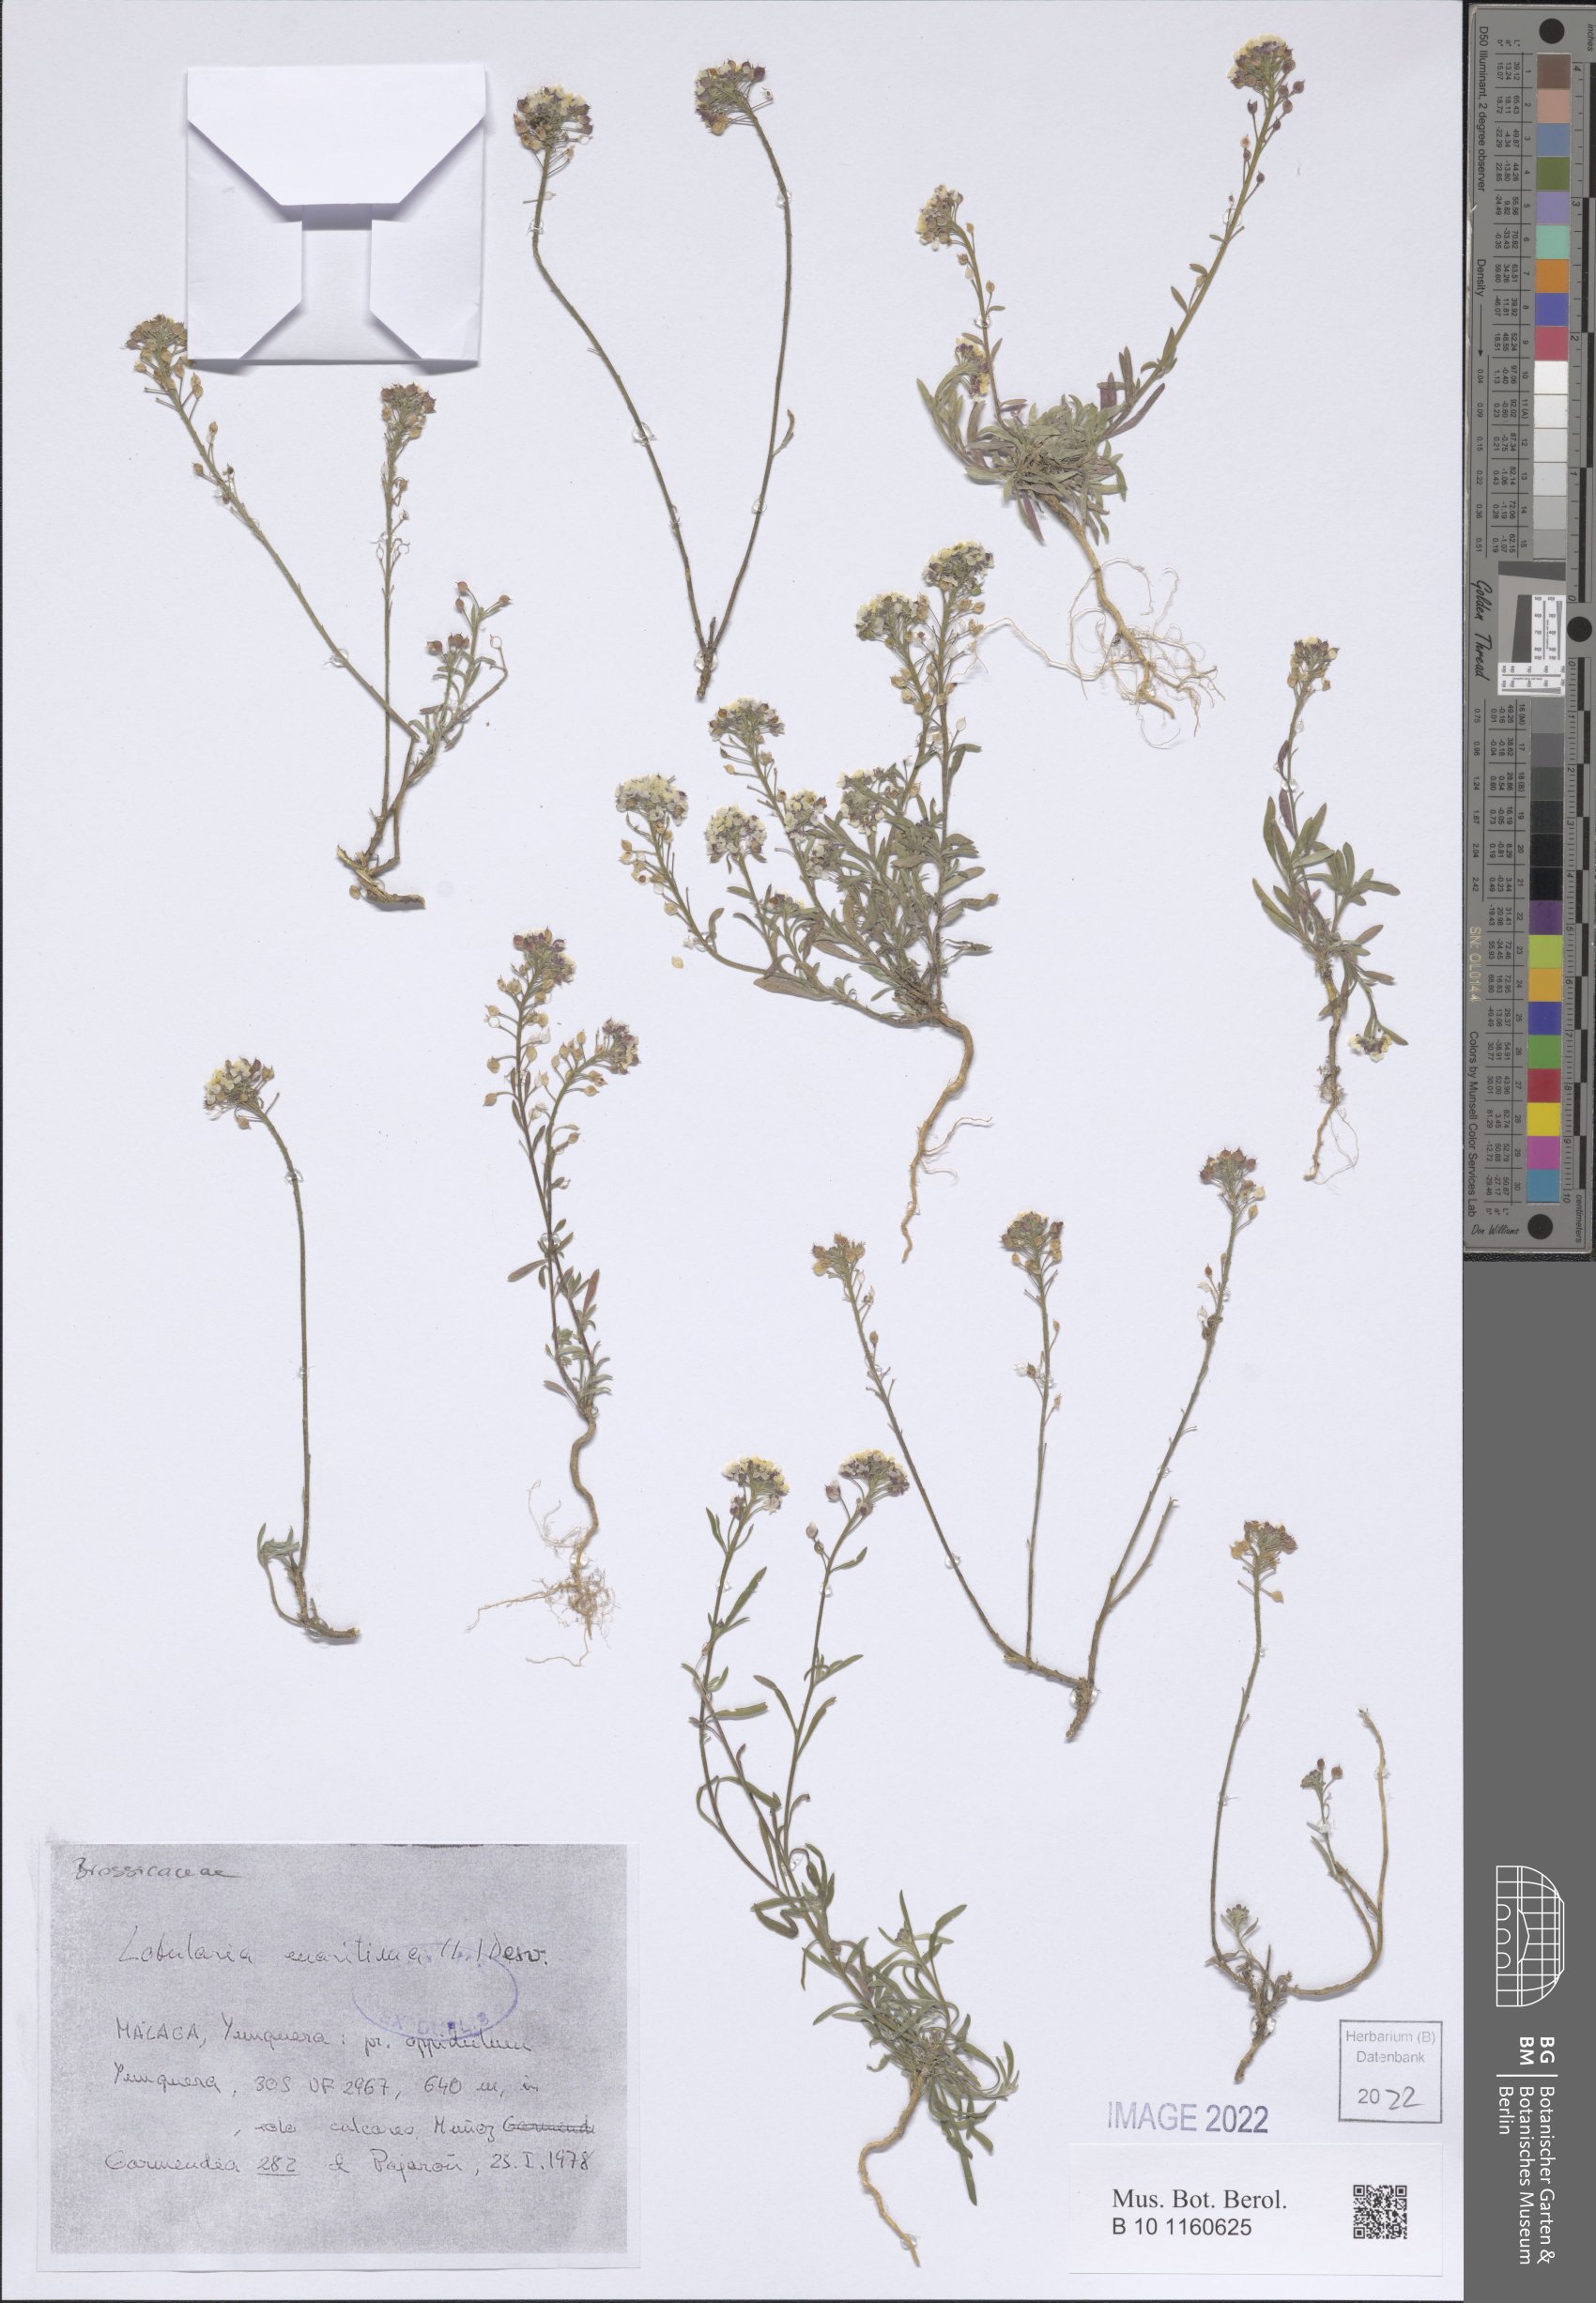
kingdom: Plantae
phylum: Tracheophyta
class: Magnoliopsida
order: Brassicales
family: Brassicaceae
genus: Lobularia
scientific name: Lobularia maritima
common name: Sweet alison
